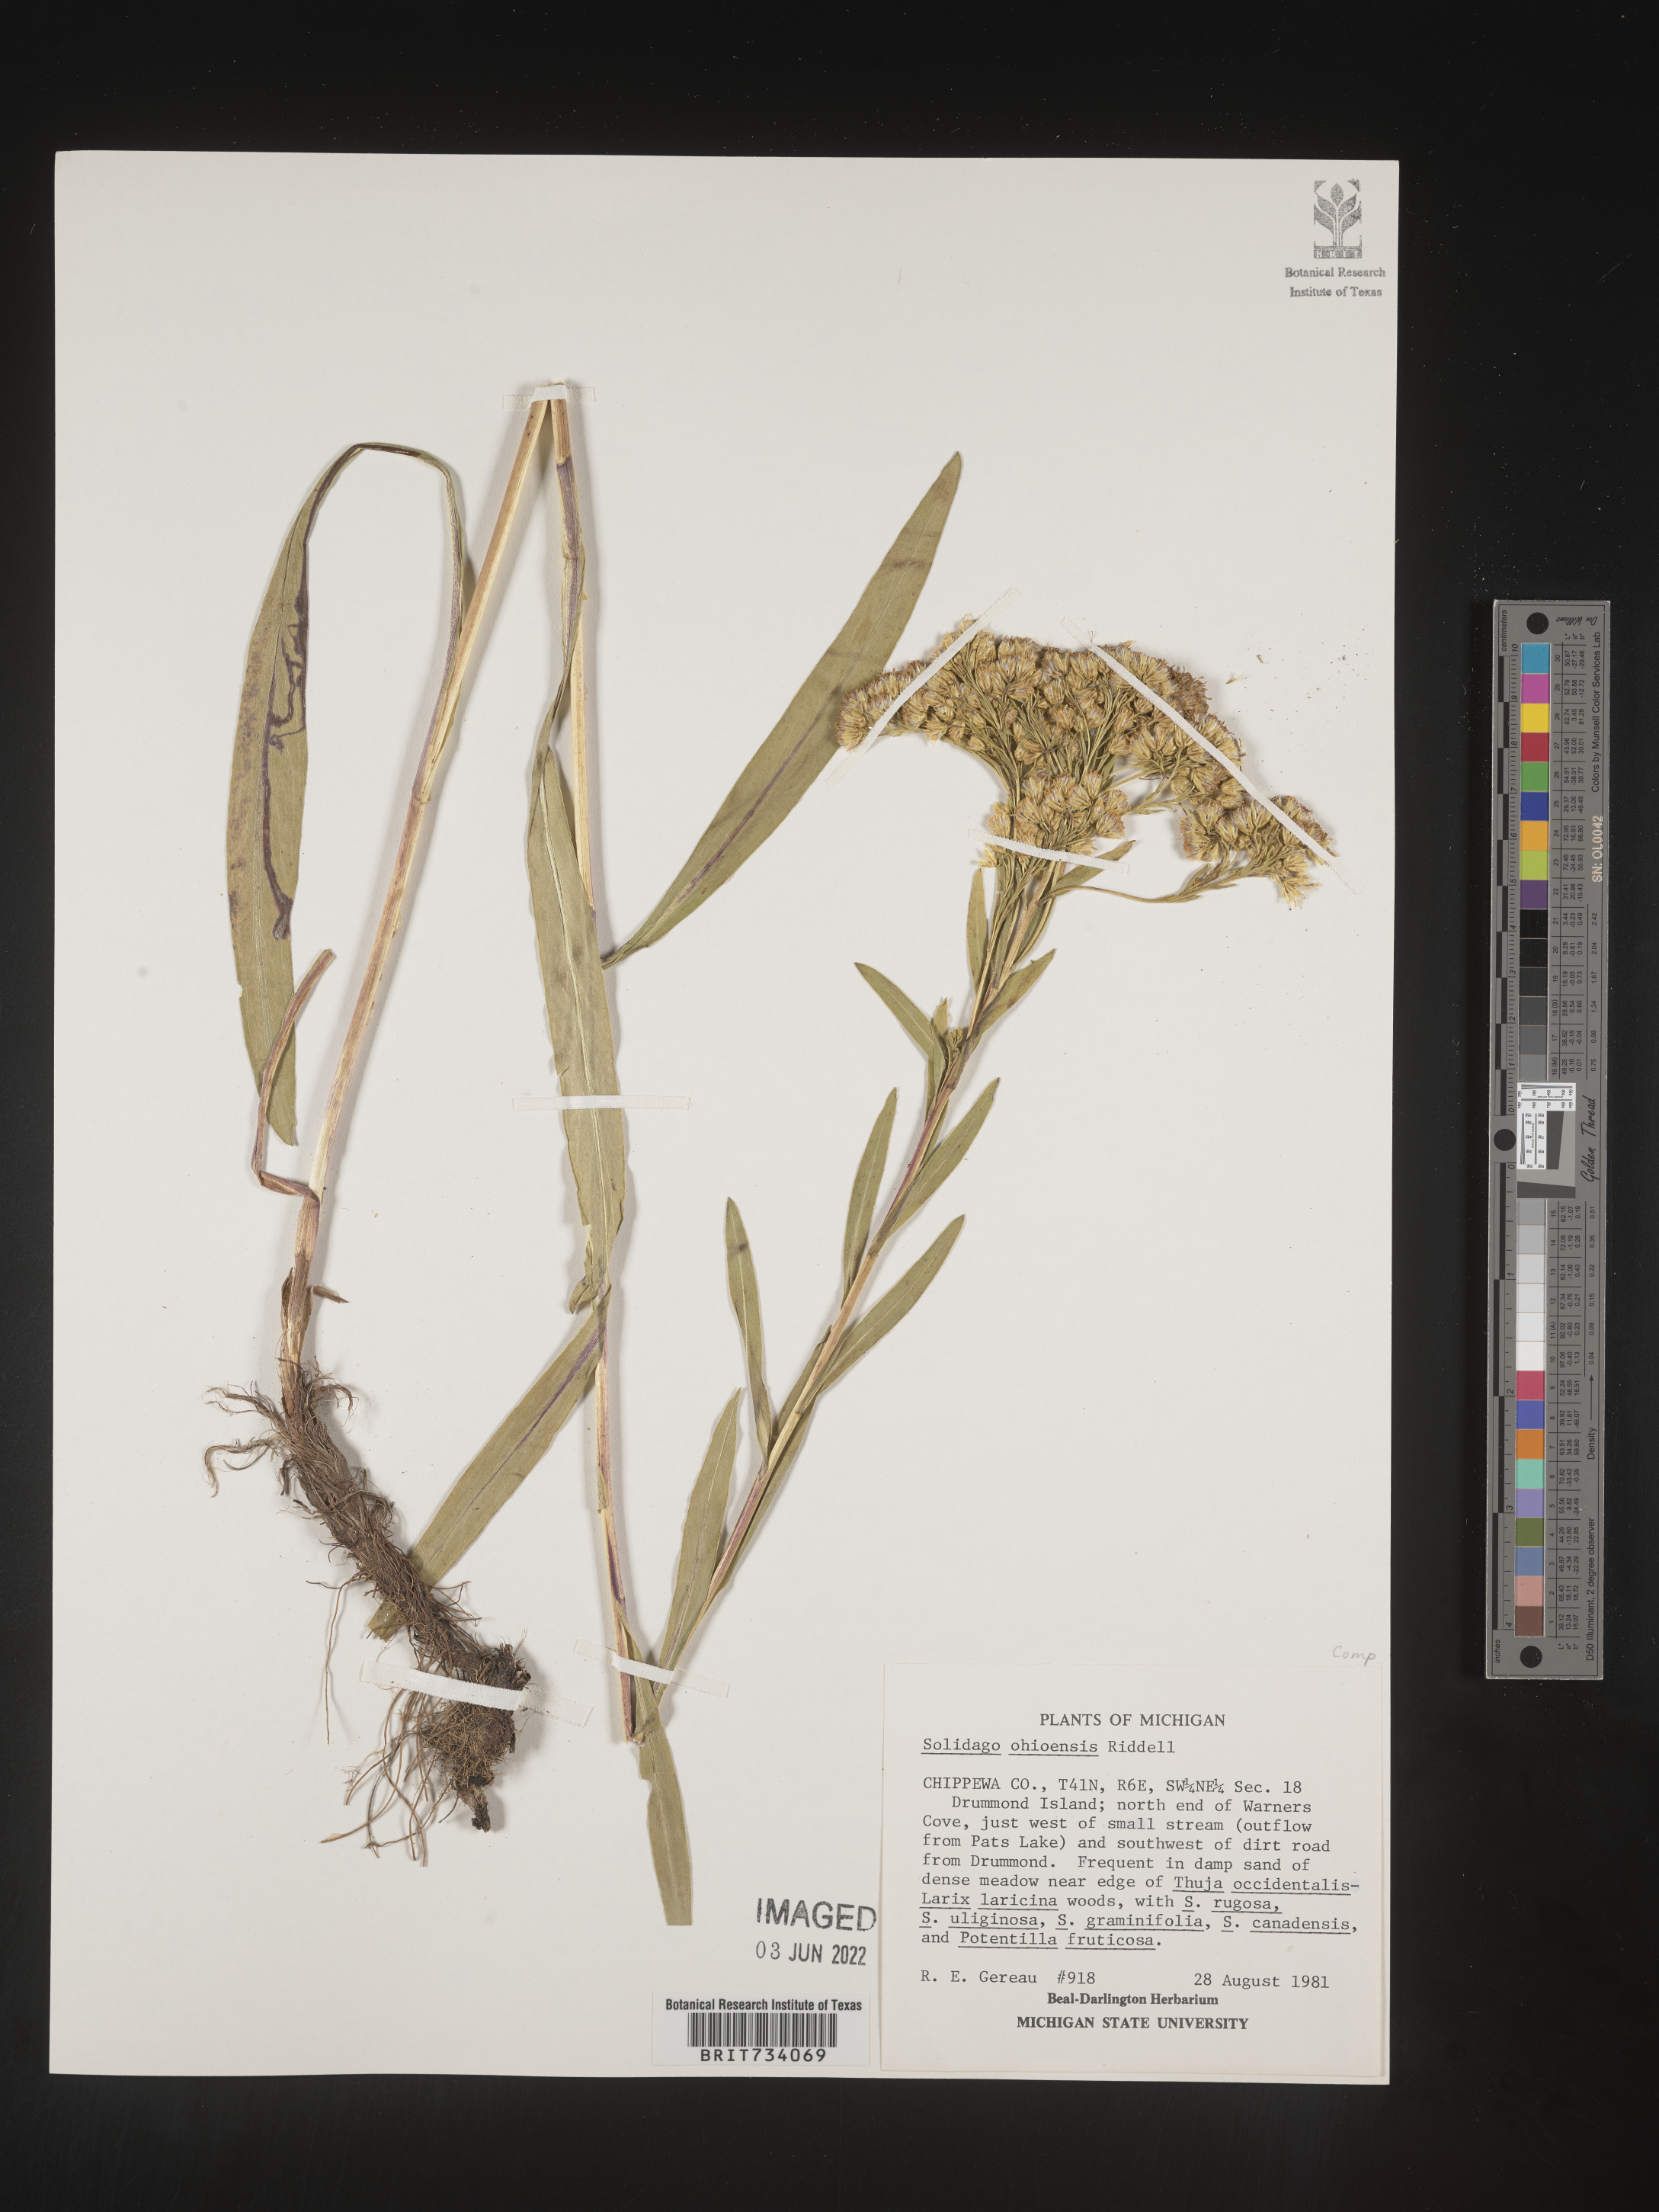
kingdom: Plantae
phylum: Tracheophyta
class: Magnoliopsida
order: Asterales
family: Asteraceae
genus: Solidago
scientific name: Solidago ohioensis
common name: Ohio goldenrod
